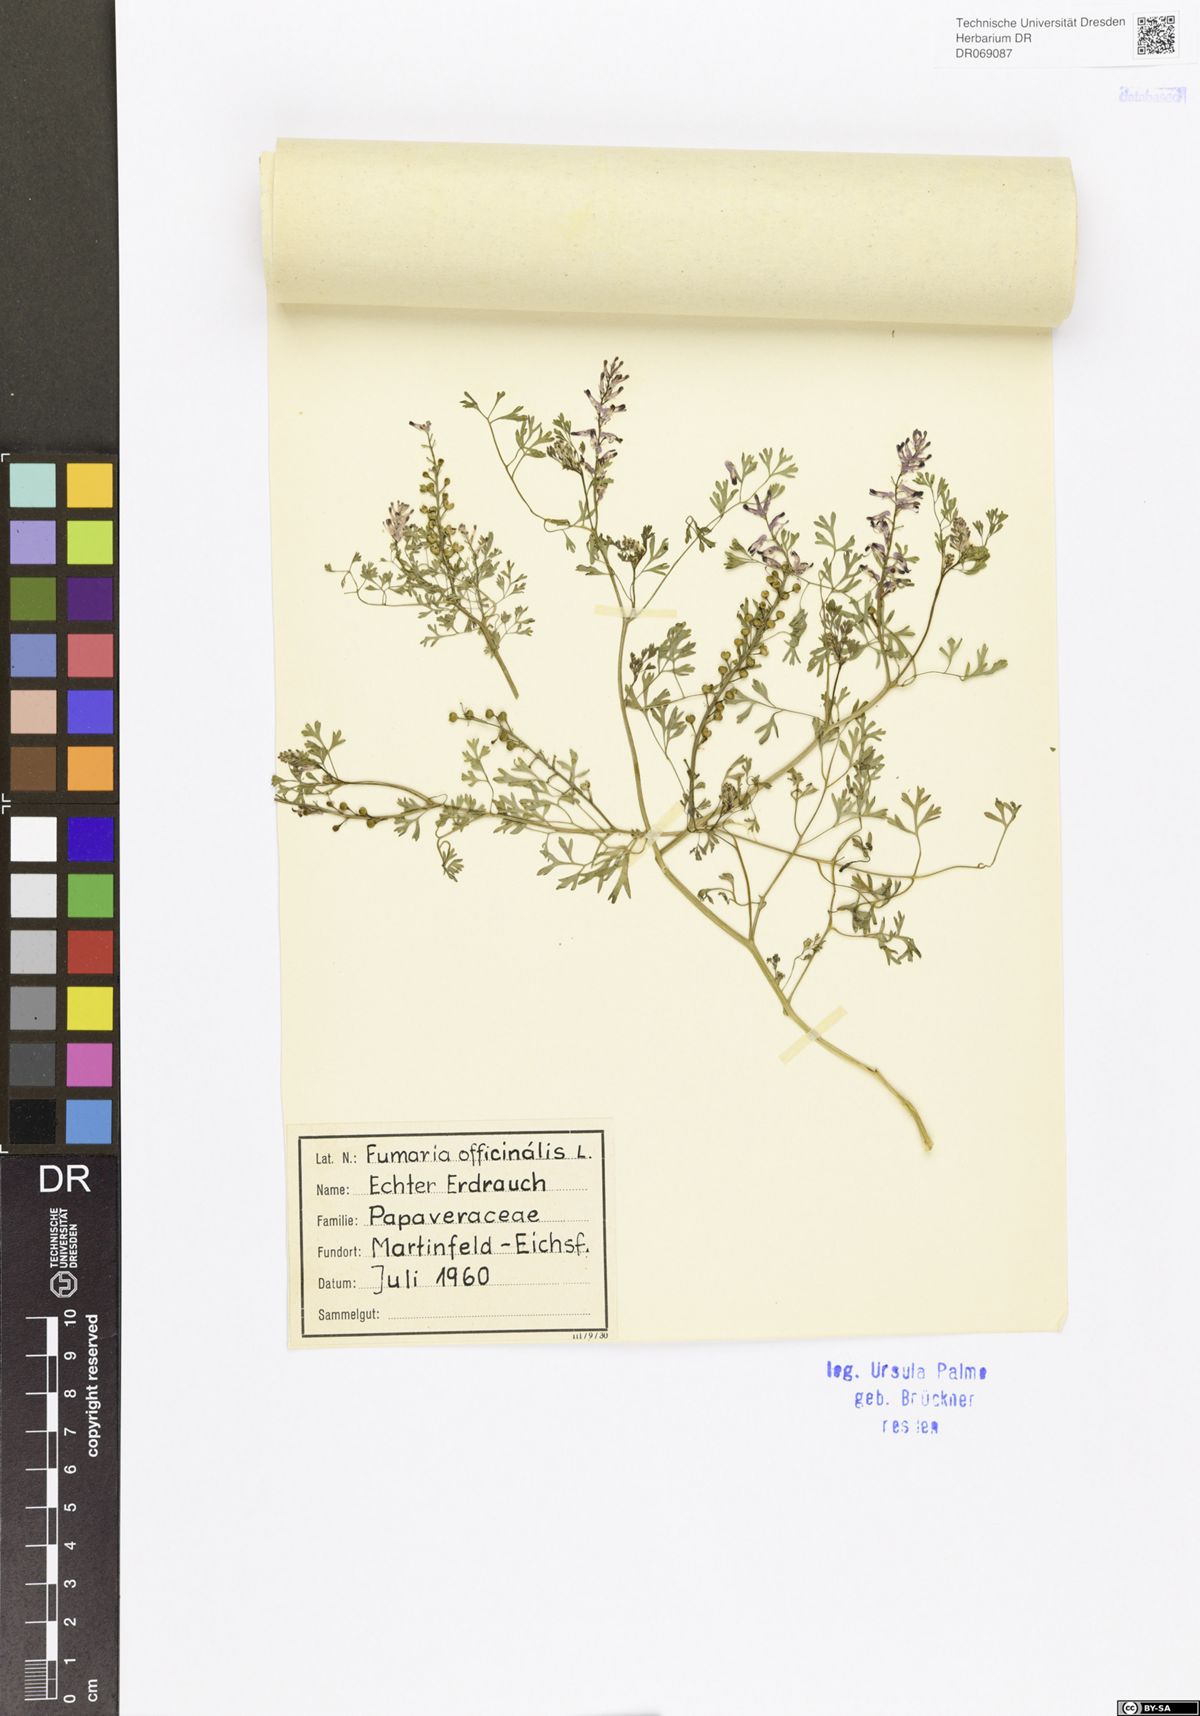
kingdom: Plantae
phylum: Tracheophyta
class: Magnoliopsida
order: Ranunculales
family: Papaveraceae
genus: Fumaria
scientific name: Fumaria officinalis
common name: Common fumitory
